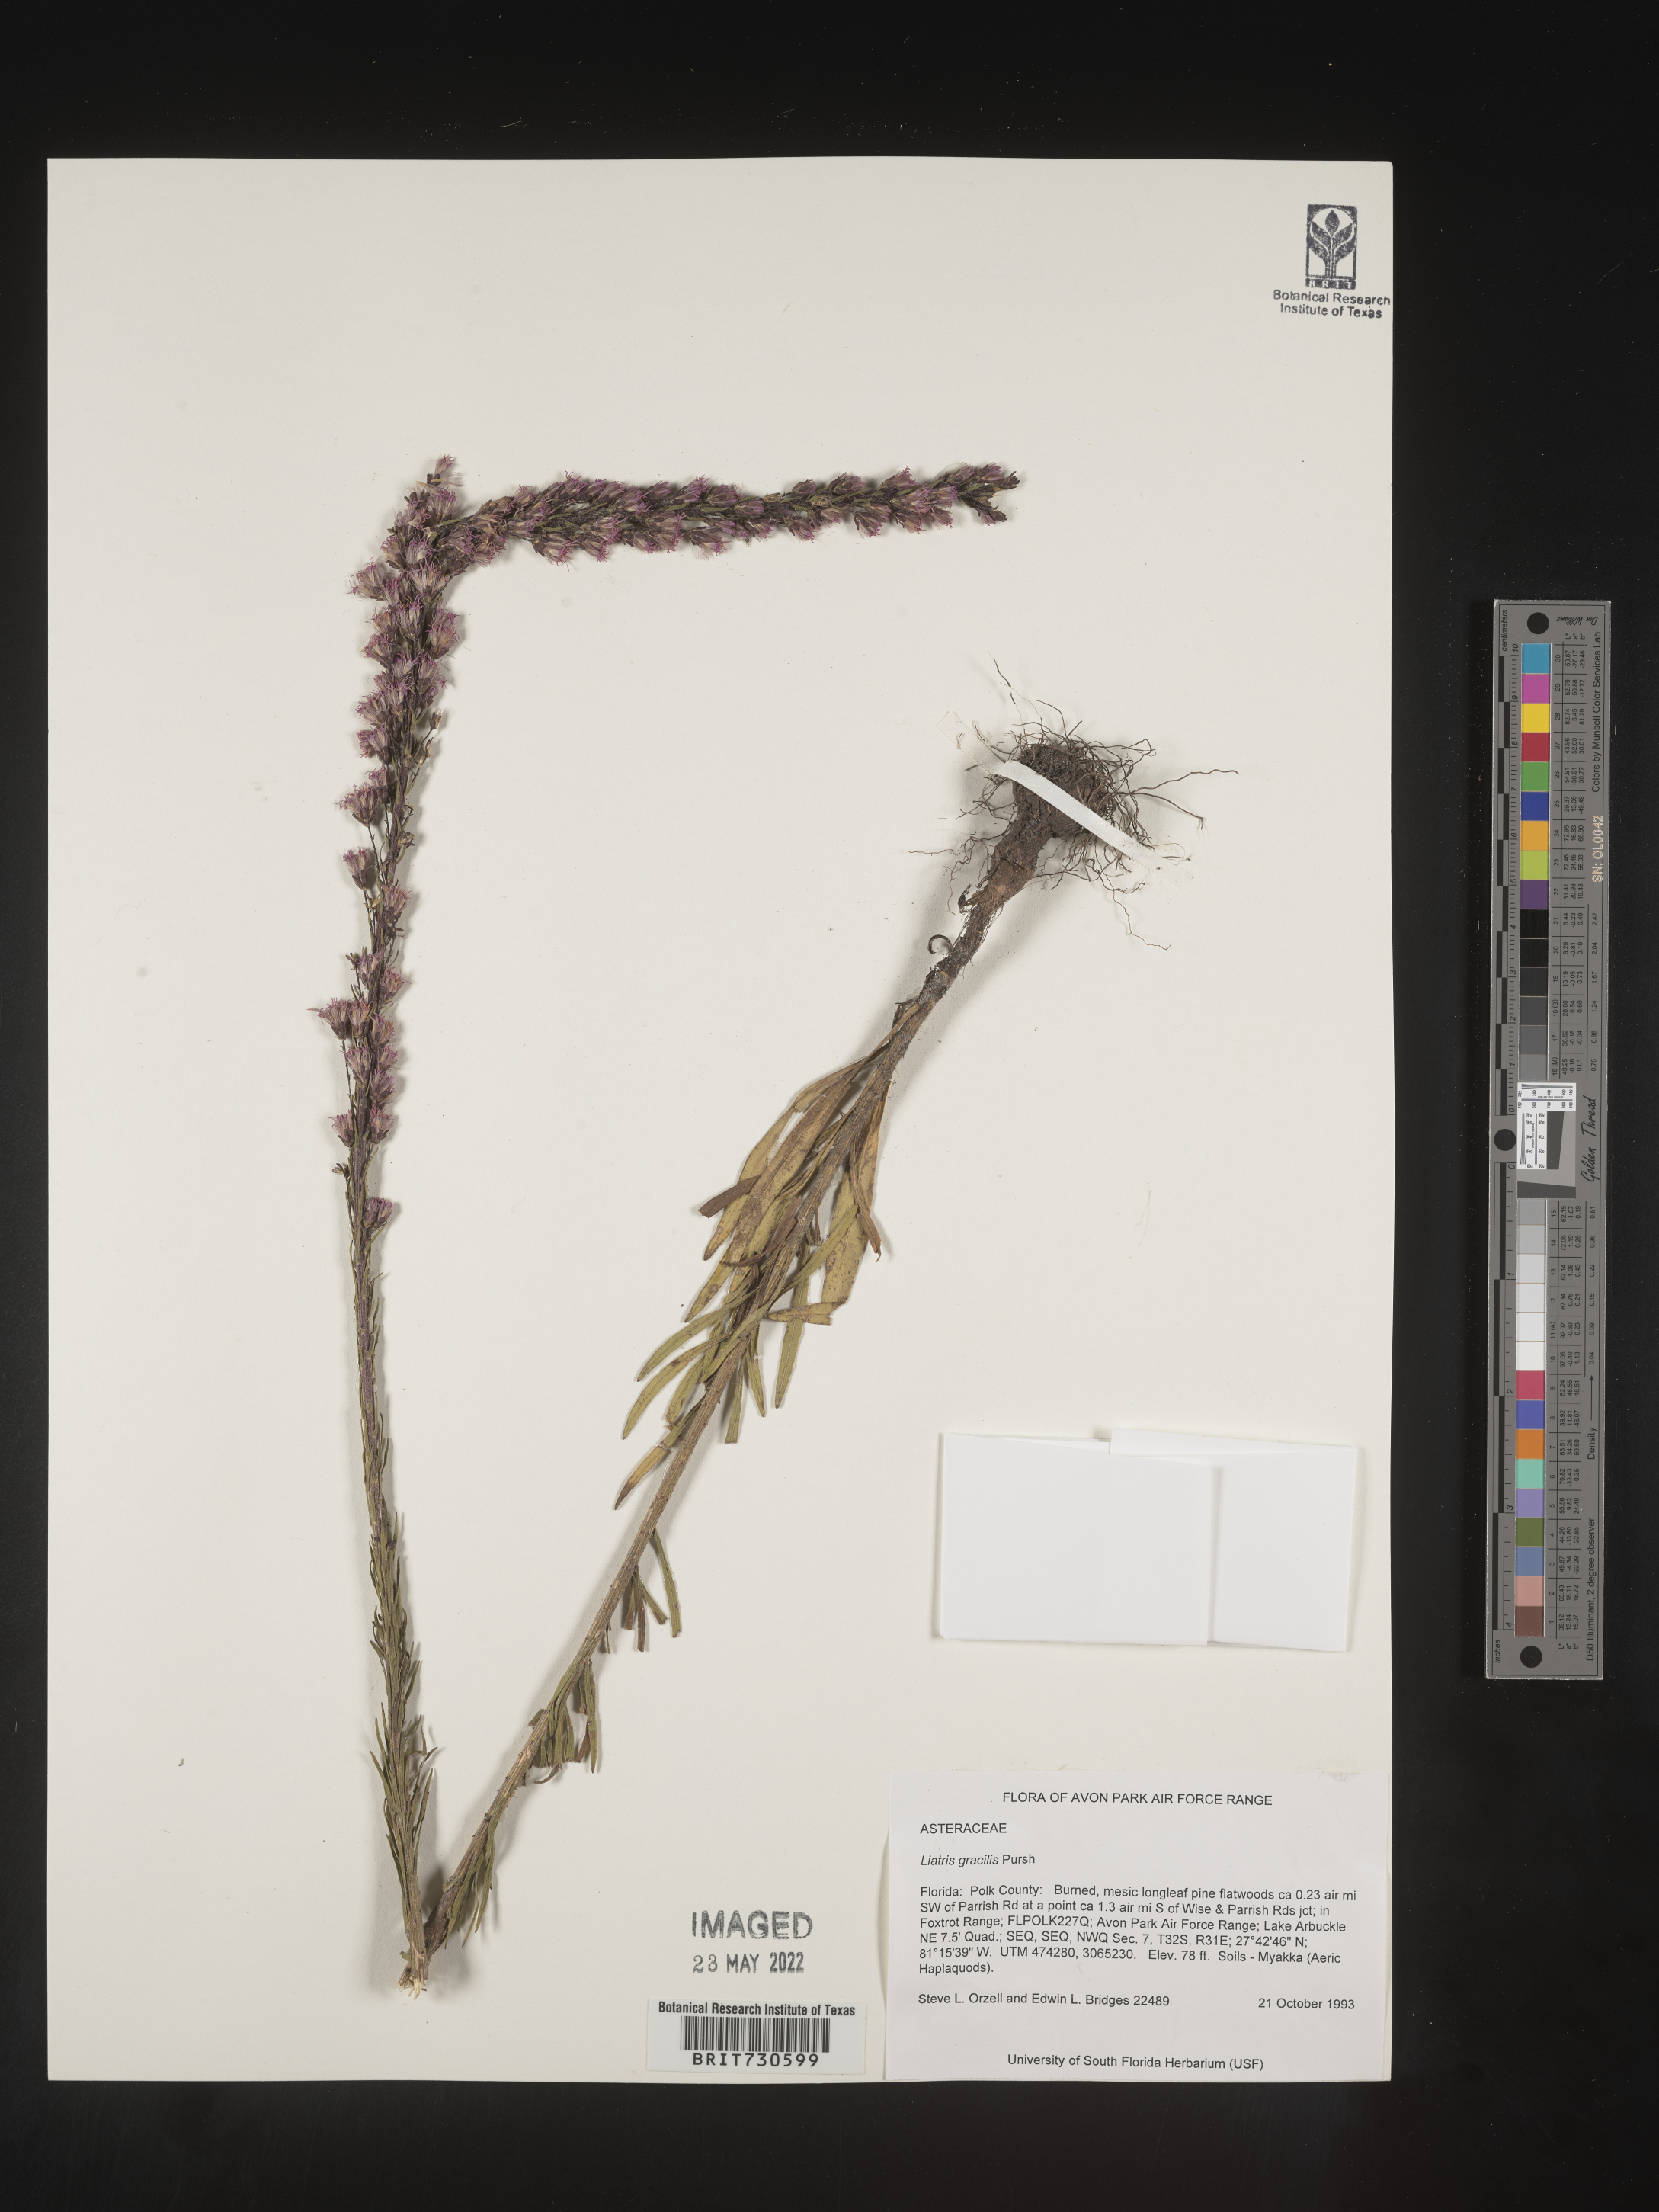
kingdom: Plantae
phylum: Tracheophyta
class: Magnoliopsida
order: Asterales
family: Asteraceae
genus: Liatris
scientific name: Liatris gracilis
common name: Slender gayfeather
